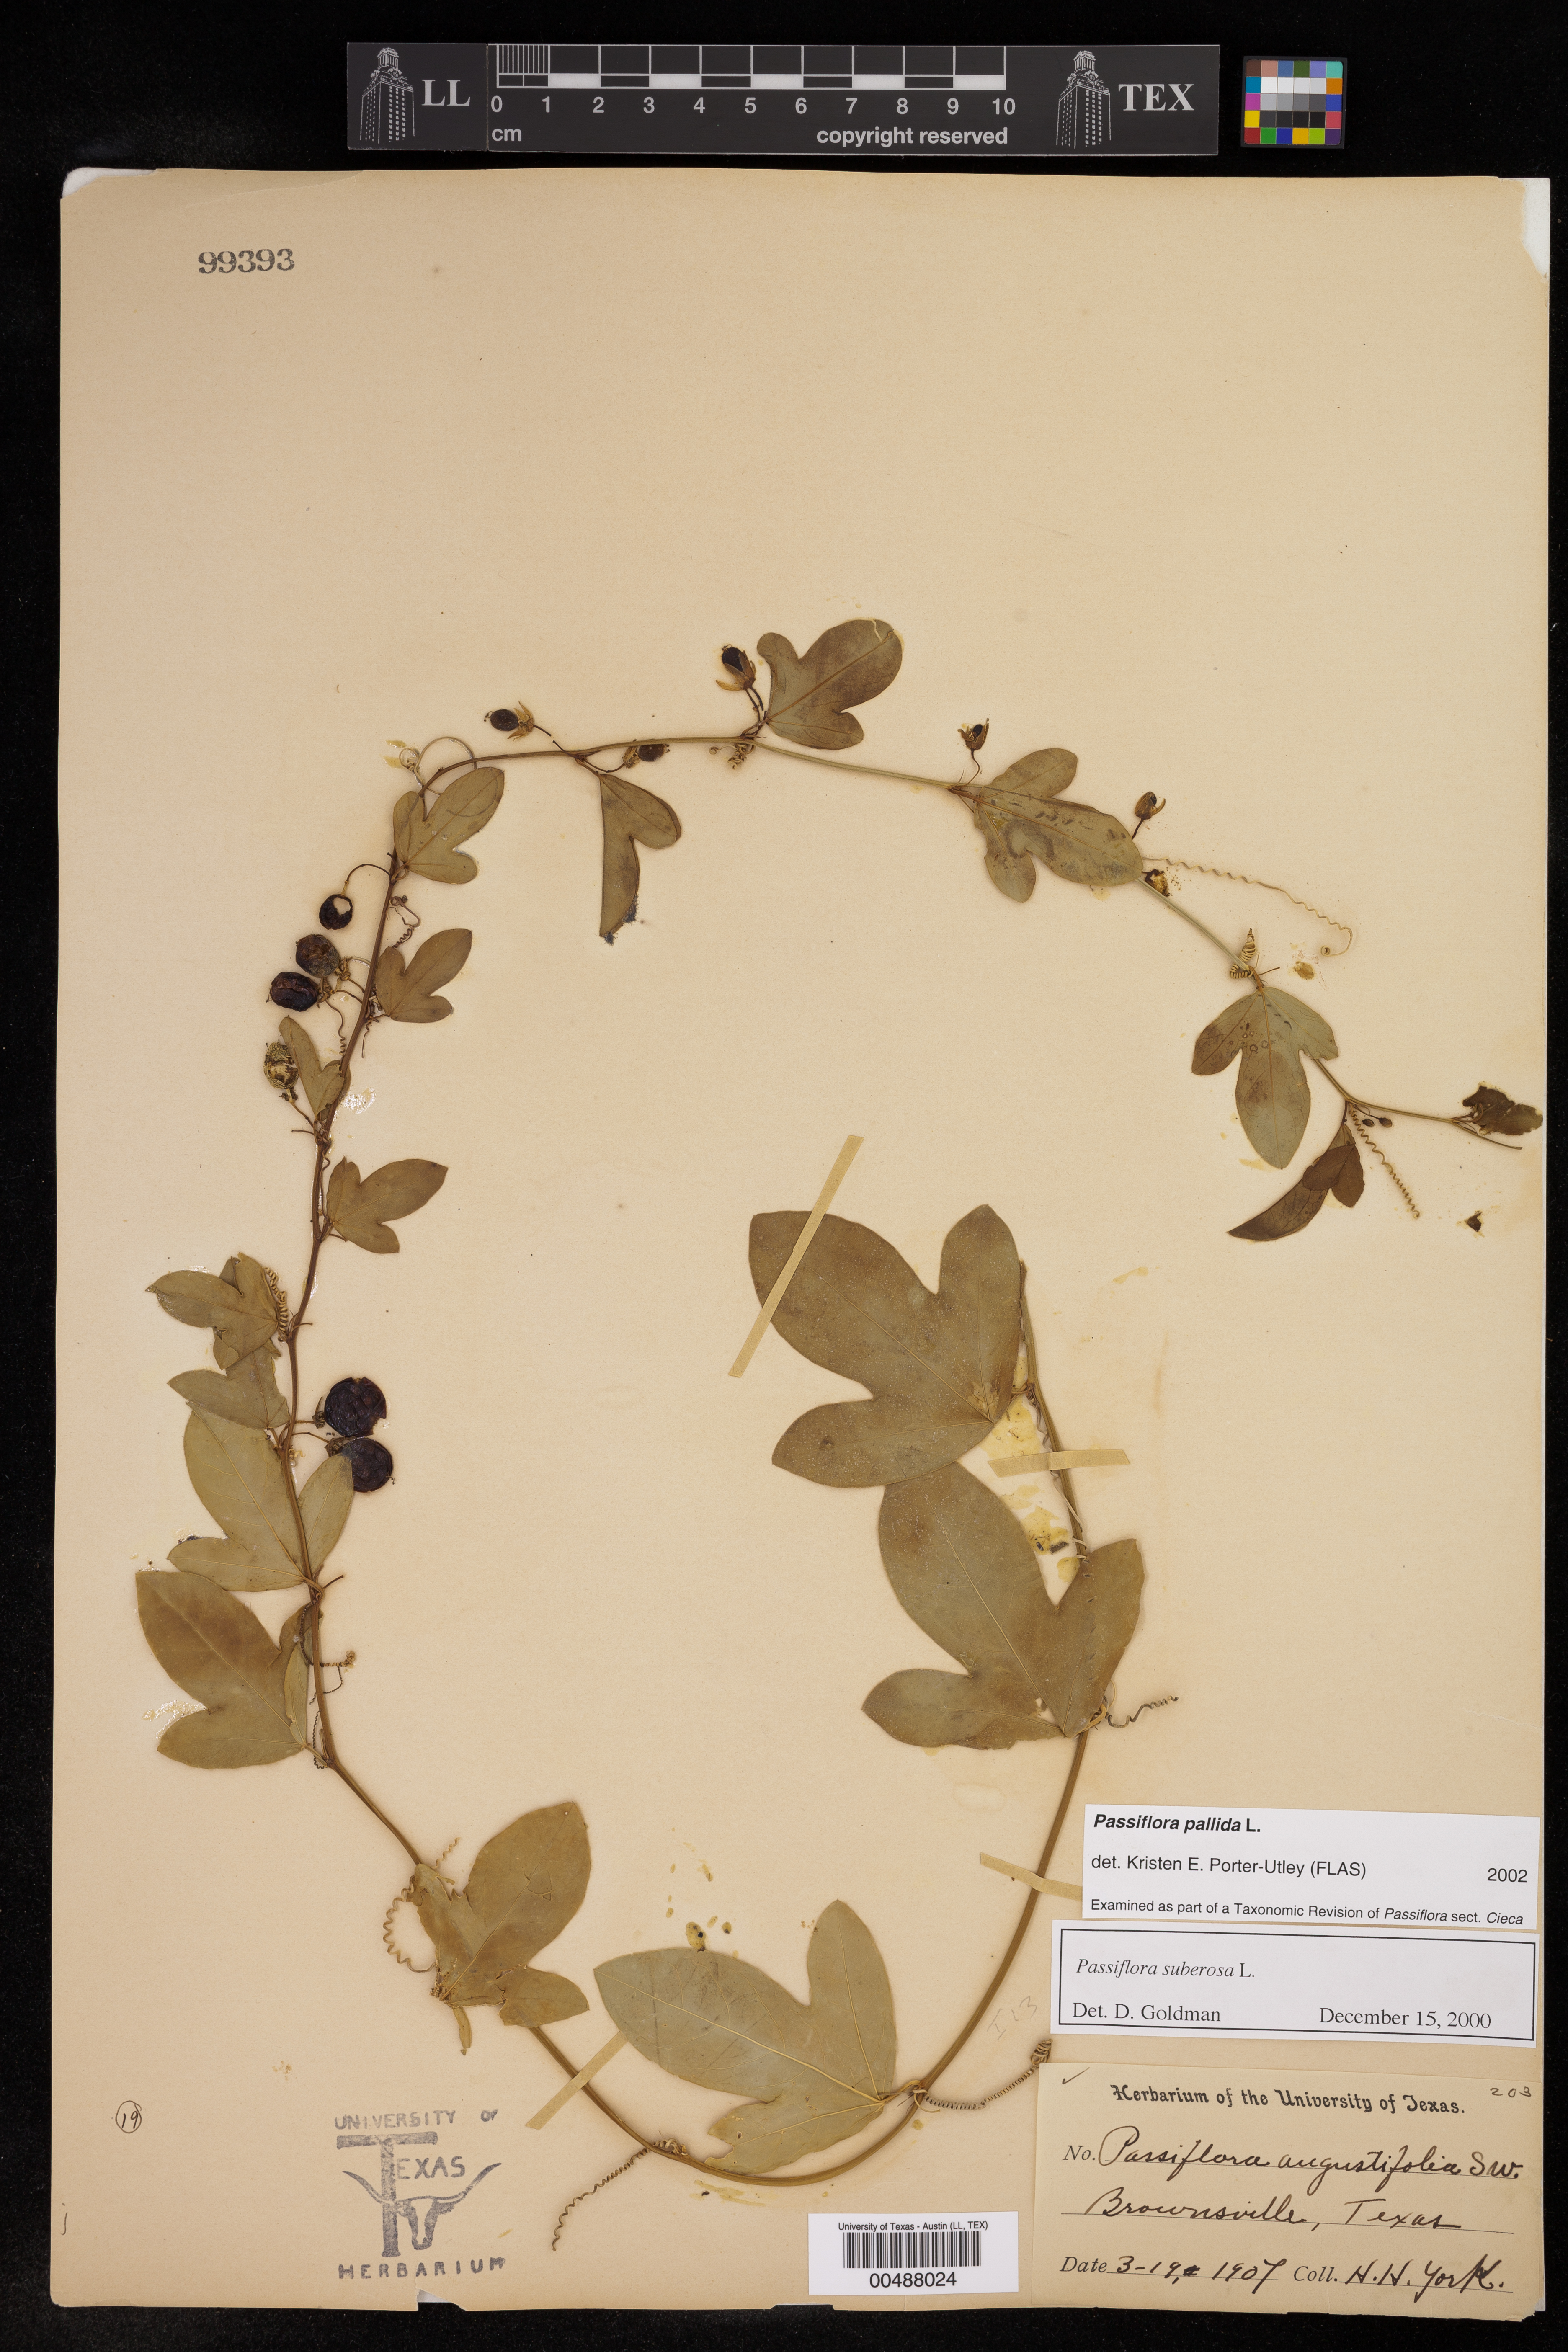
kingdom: Plantae
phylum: Tracheophyta
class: Magnoliopsida
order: Malpighiales
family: Passifloraceae
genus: Passiflora
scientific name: Passiflora pallida
